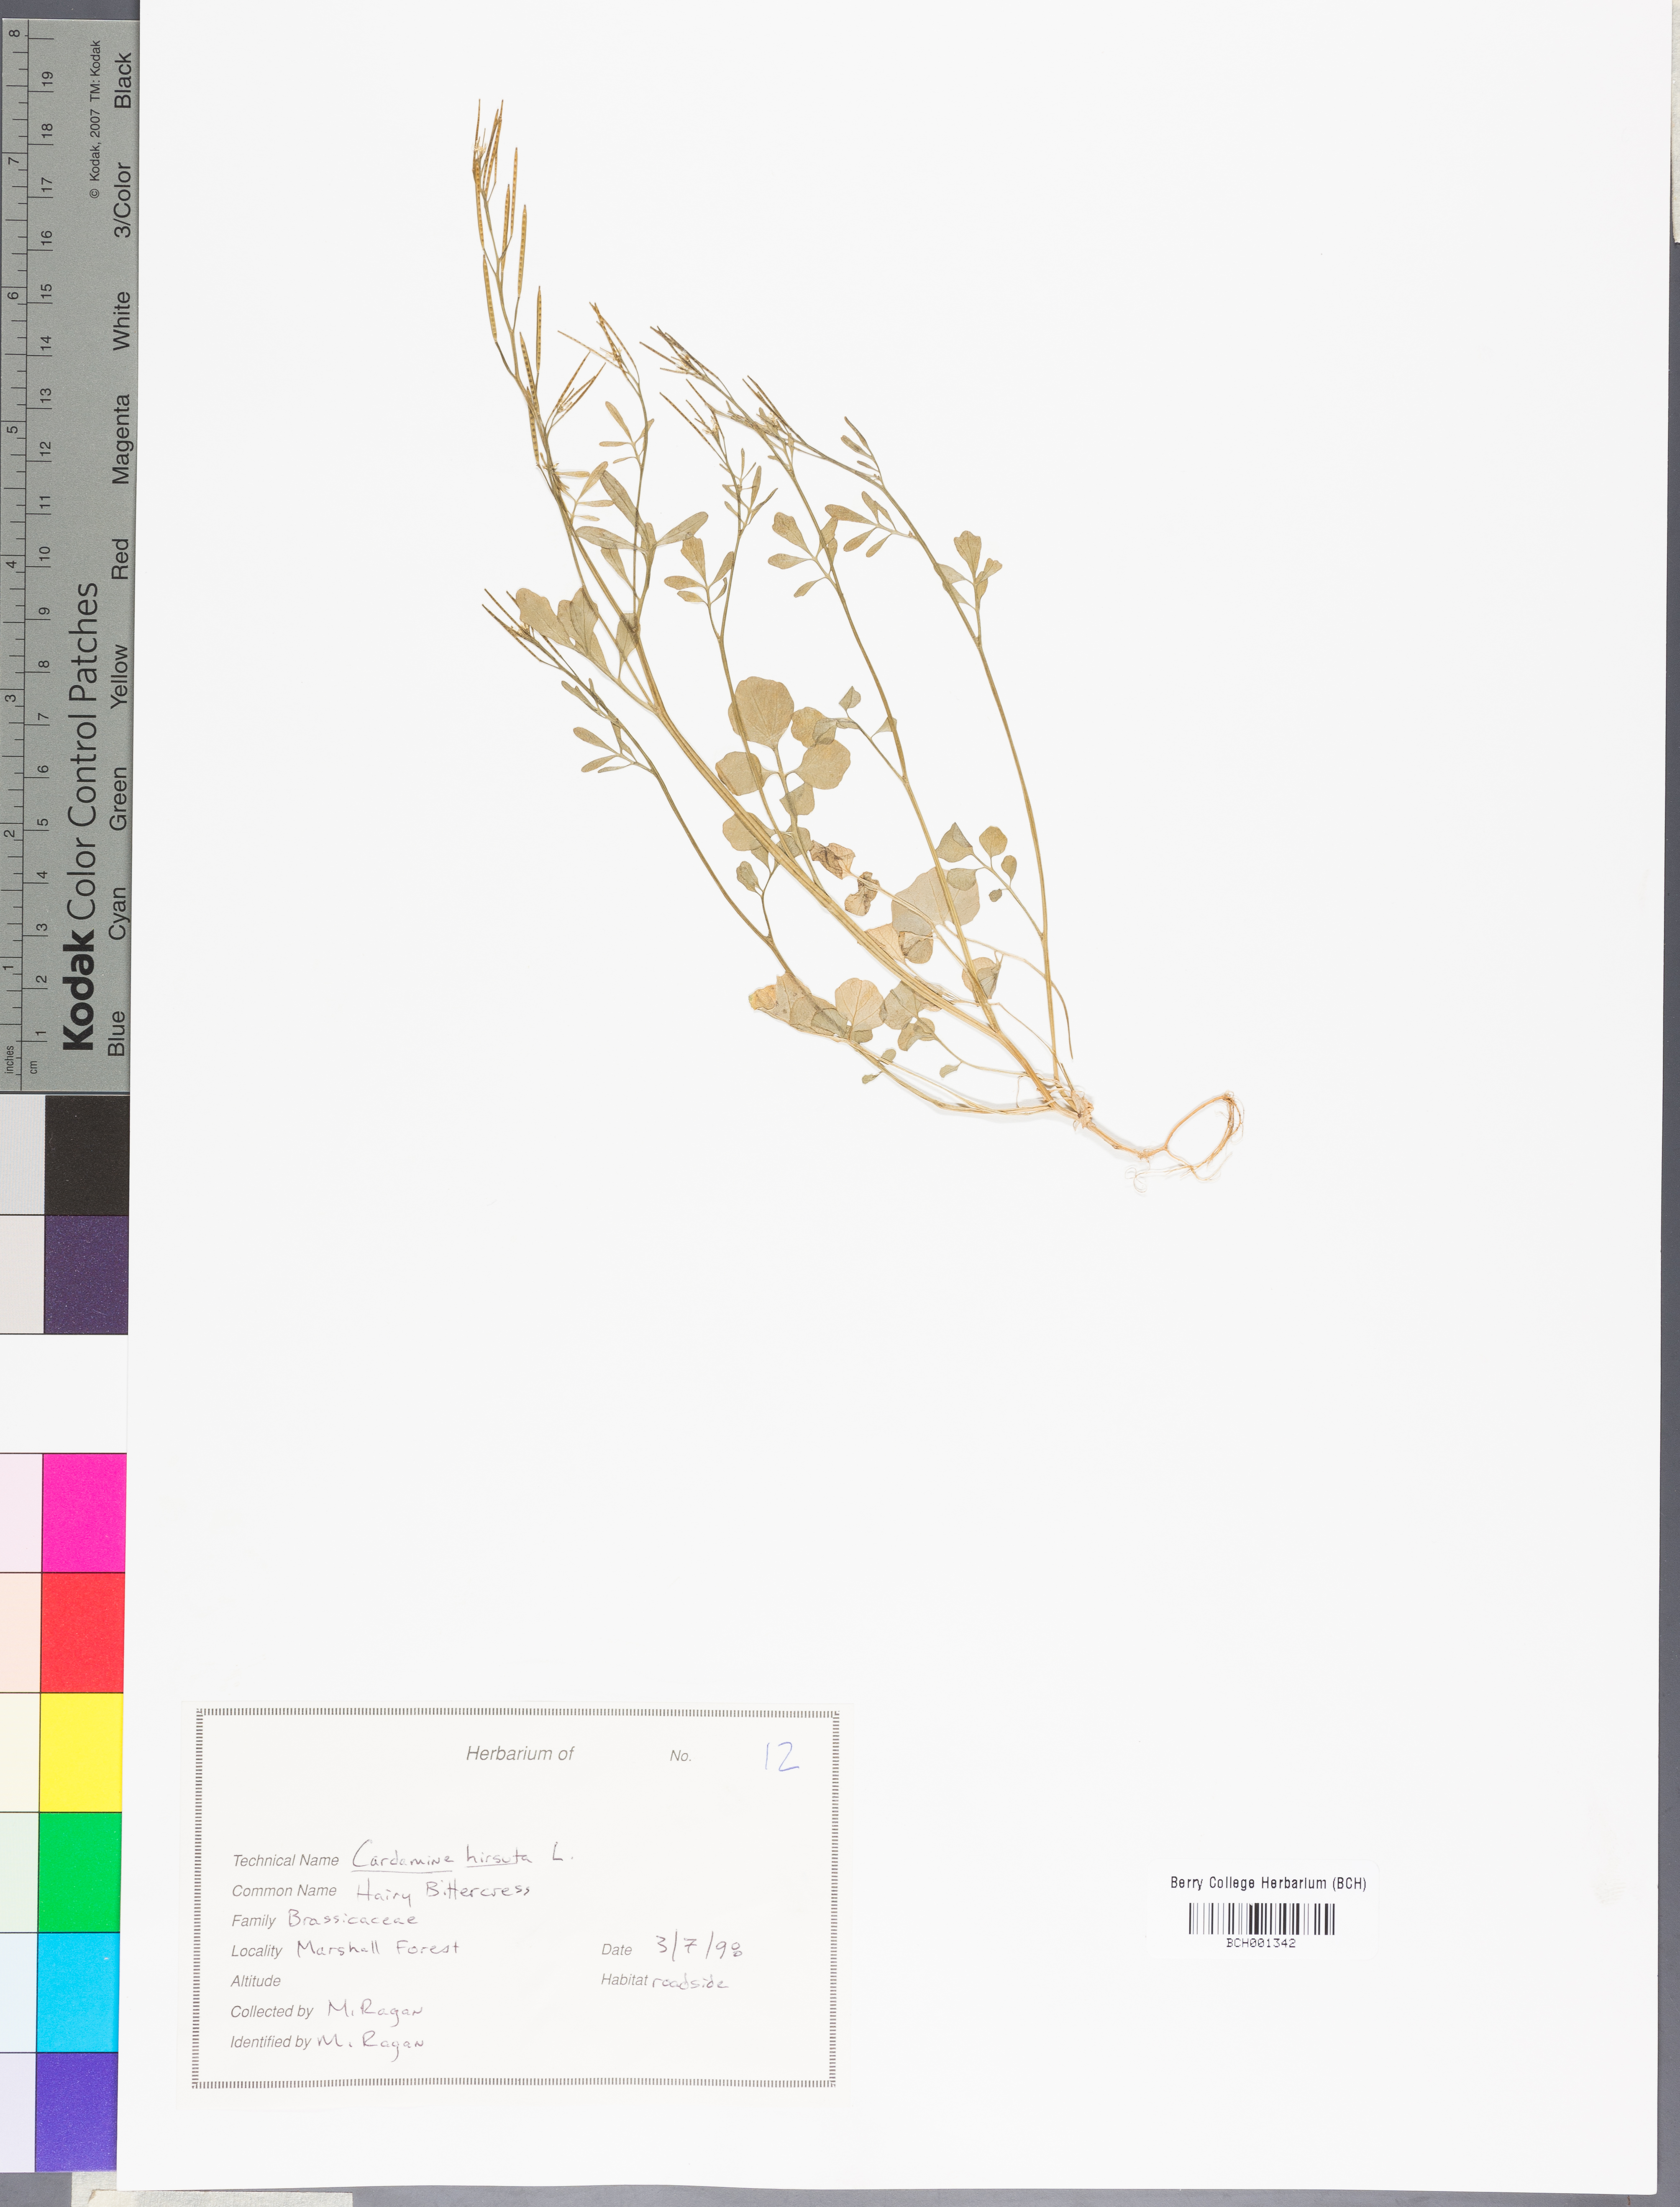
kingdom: Plantae
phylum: Tracheophyta
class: Magnoliopsida
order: Brassicales
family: Brassicaceae
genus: Cardamine
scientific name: Cardamine hirsuta
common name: Hairy bittercress
